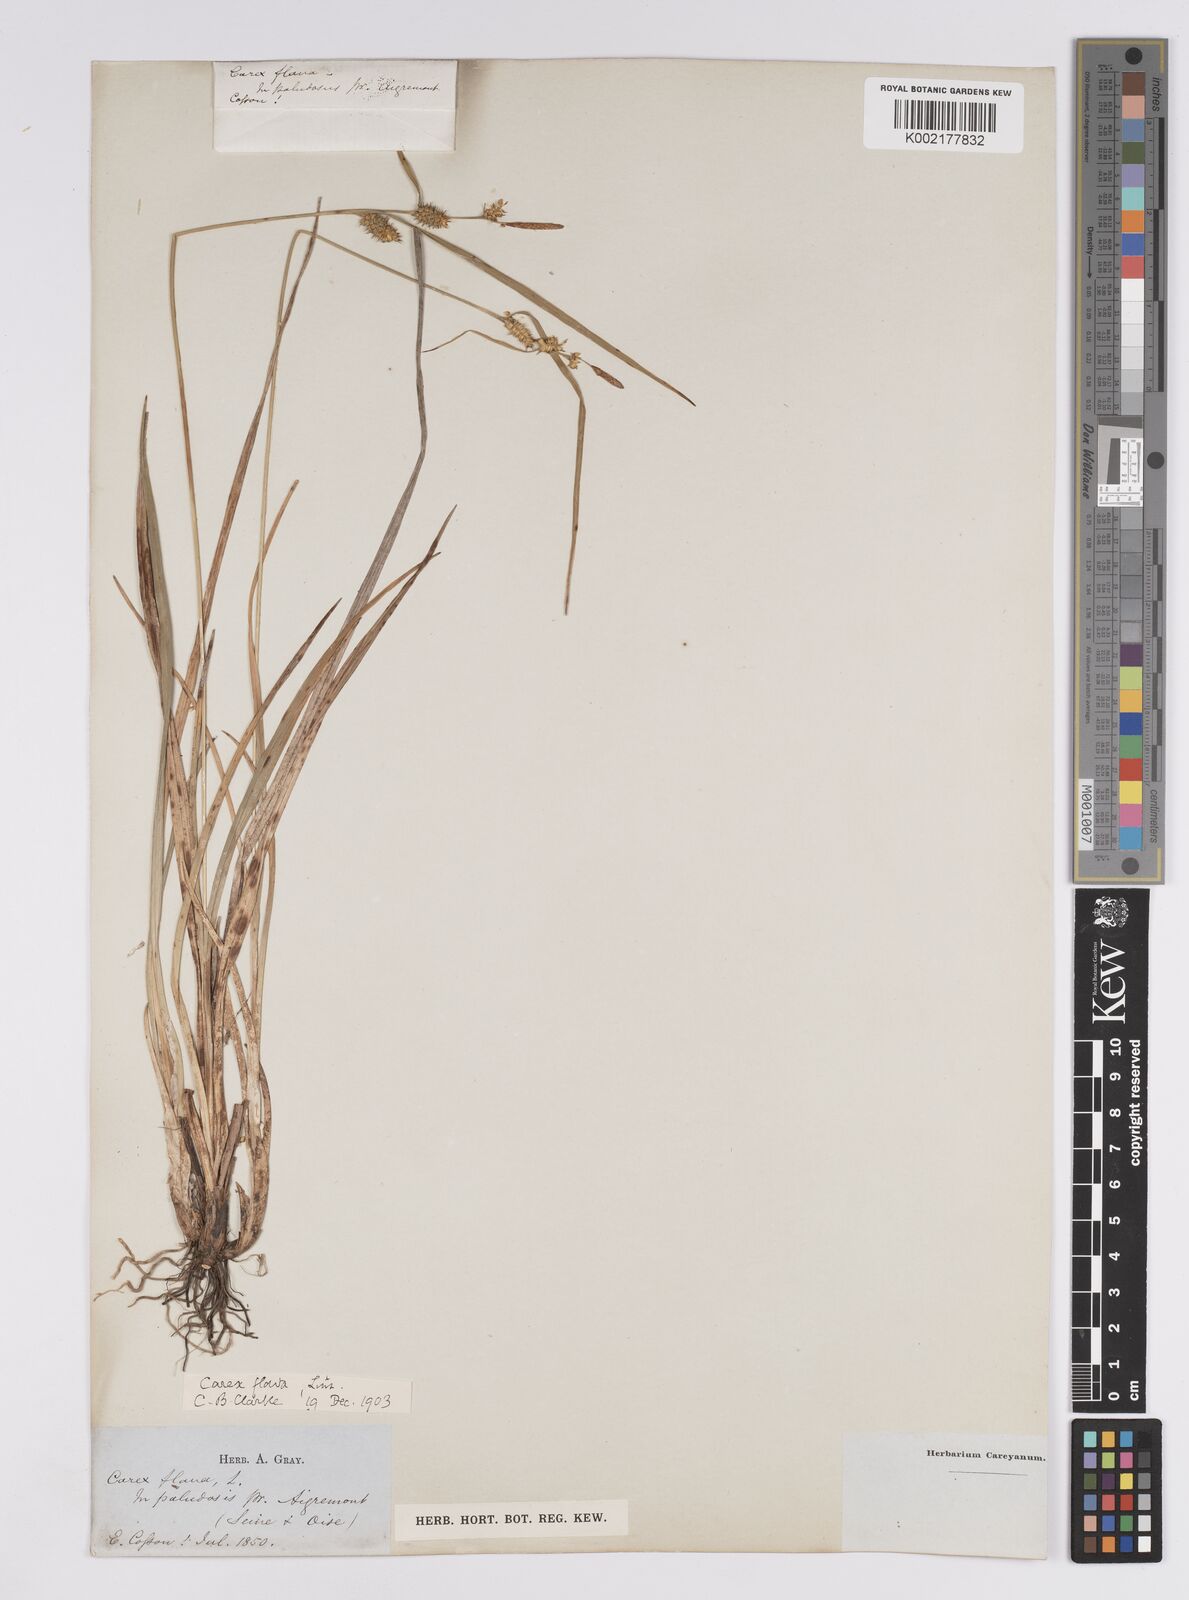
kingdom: Plantae
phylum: Tracheophyta
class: Liliopsida
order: Poales
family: Cyperaceae
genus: Carex
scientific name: Carex flava
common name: Large yellow-sedge
